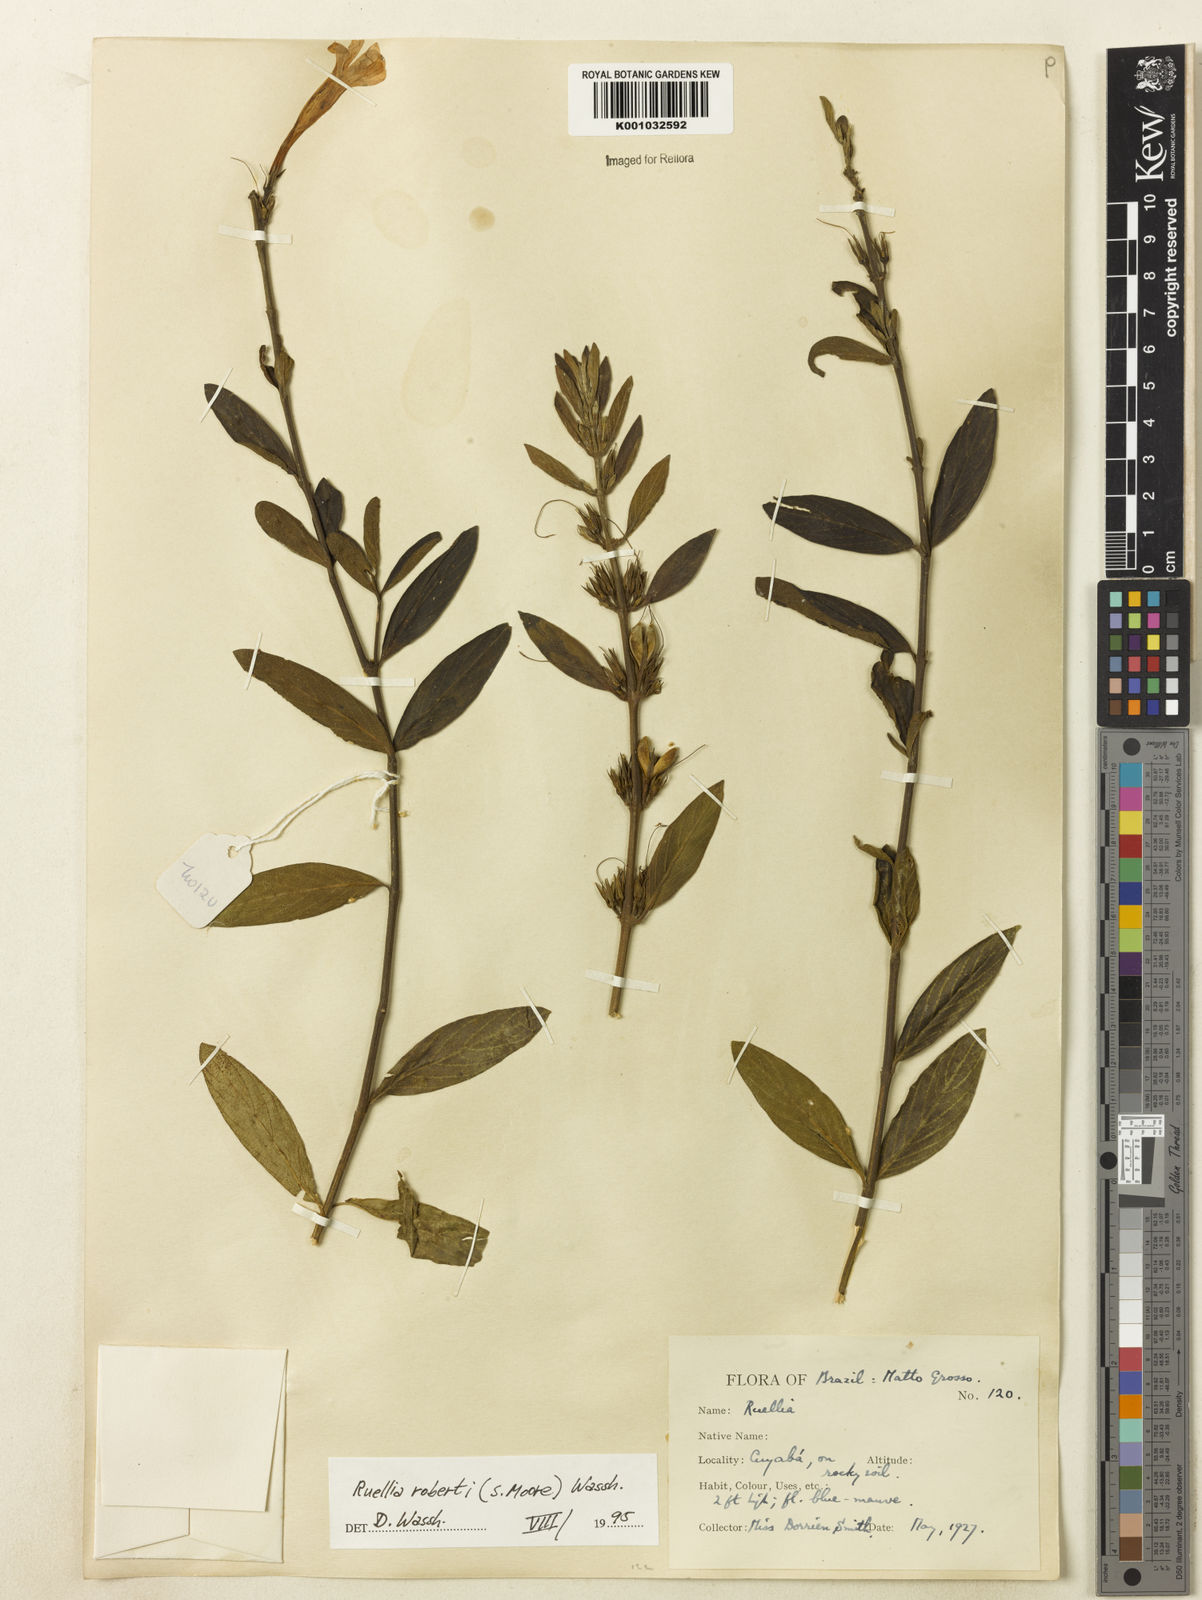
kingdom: Plantae
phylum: Tracheophyta
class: Magnoliopsida
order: Lamiales
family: Acanthaceae
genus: Ruellia
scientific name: Ruellia
